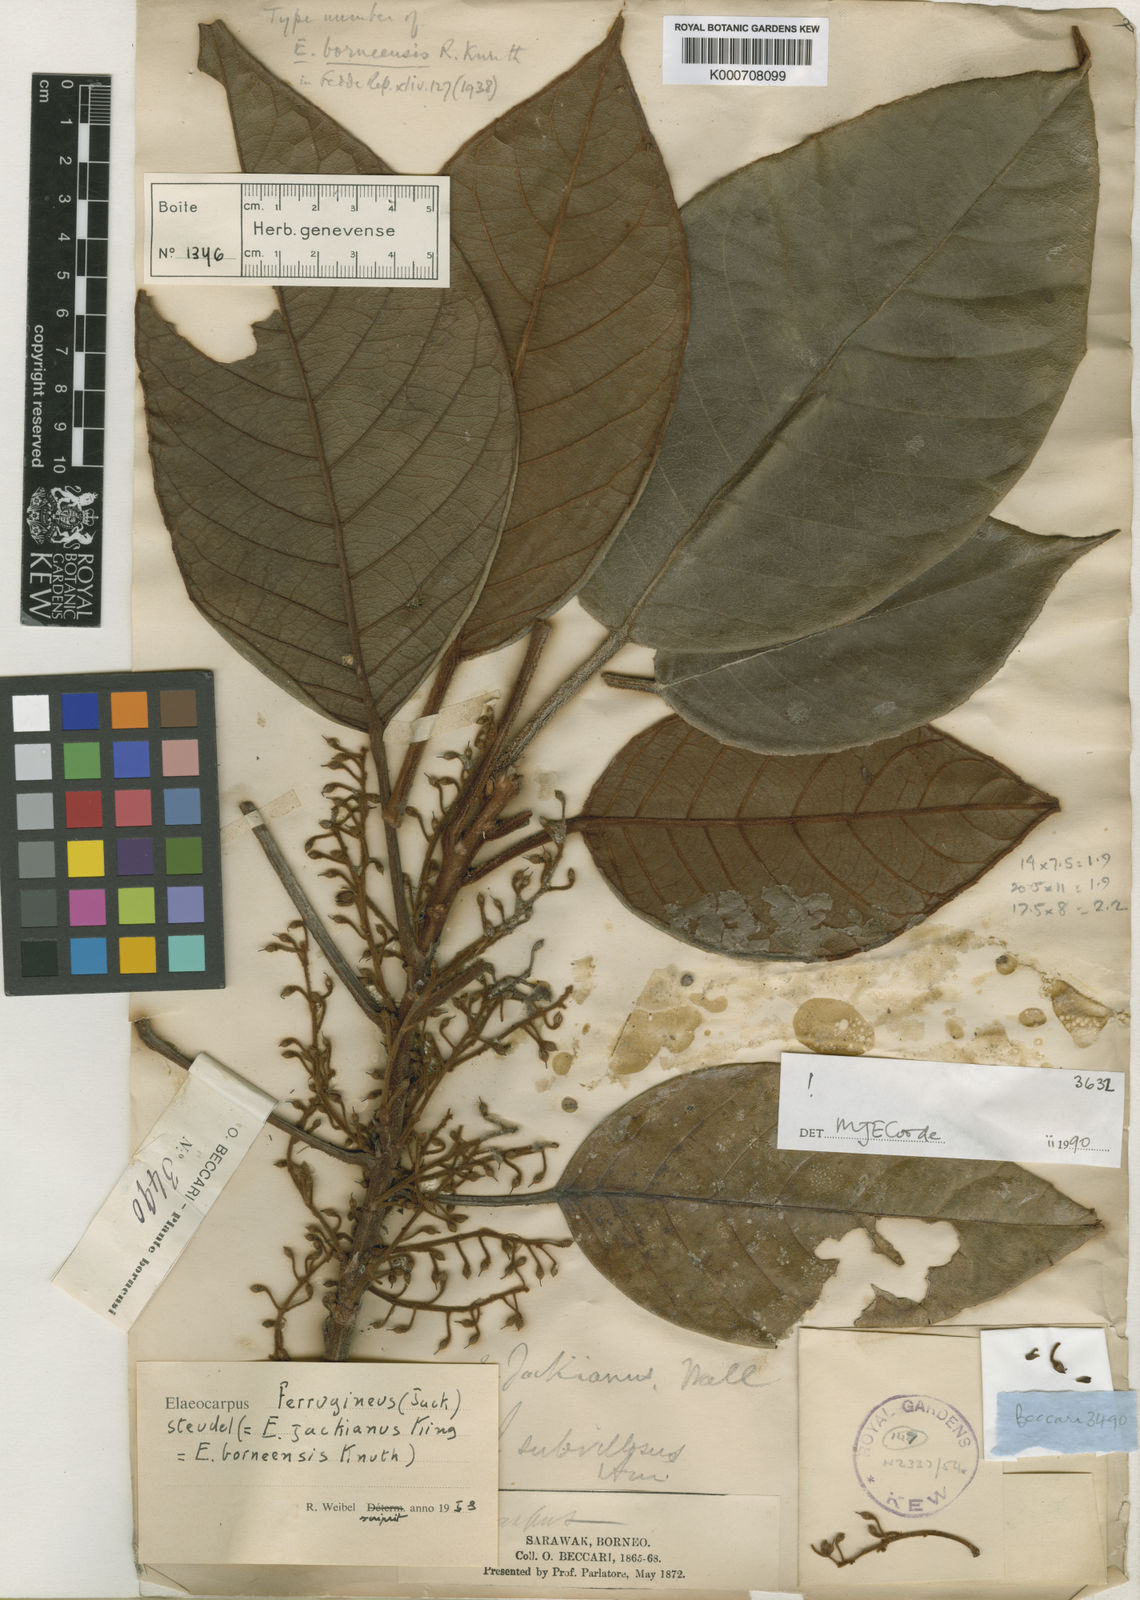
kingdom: Plantae
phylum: Tracheophyta
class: Magnoliopsida
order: Oxalidales
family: Elaeocarpaceae
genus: Elaeocarpus
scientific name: Elaeocarpus ferrugineus
